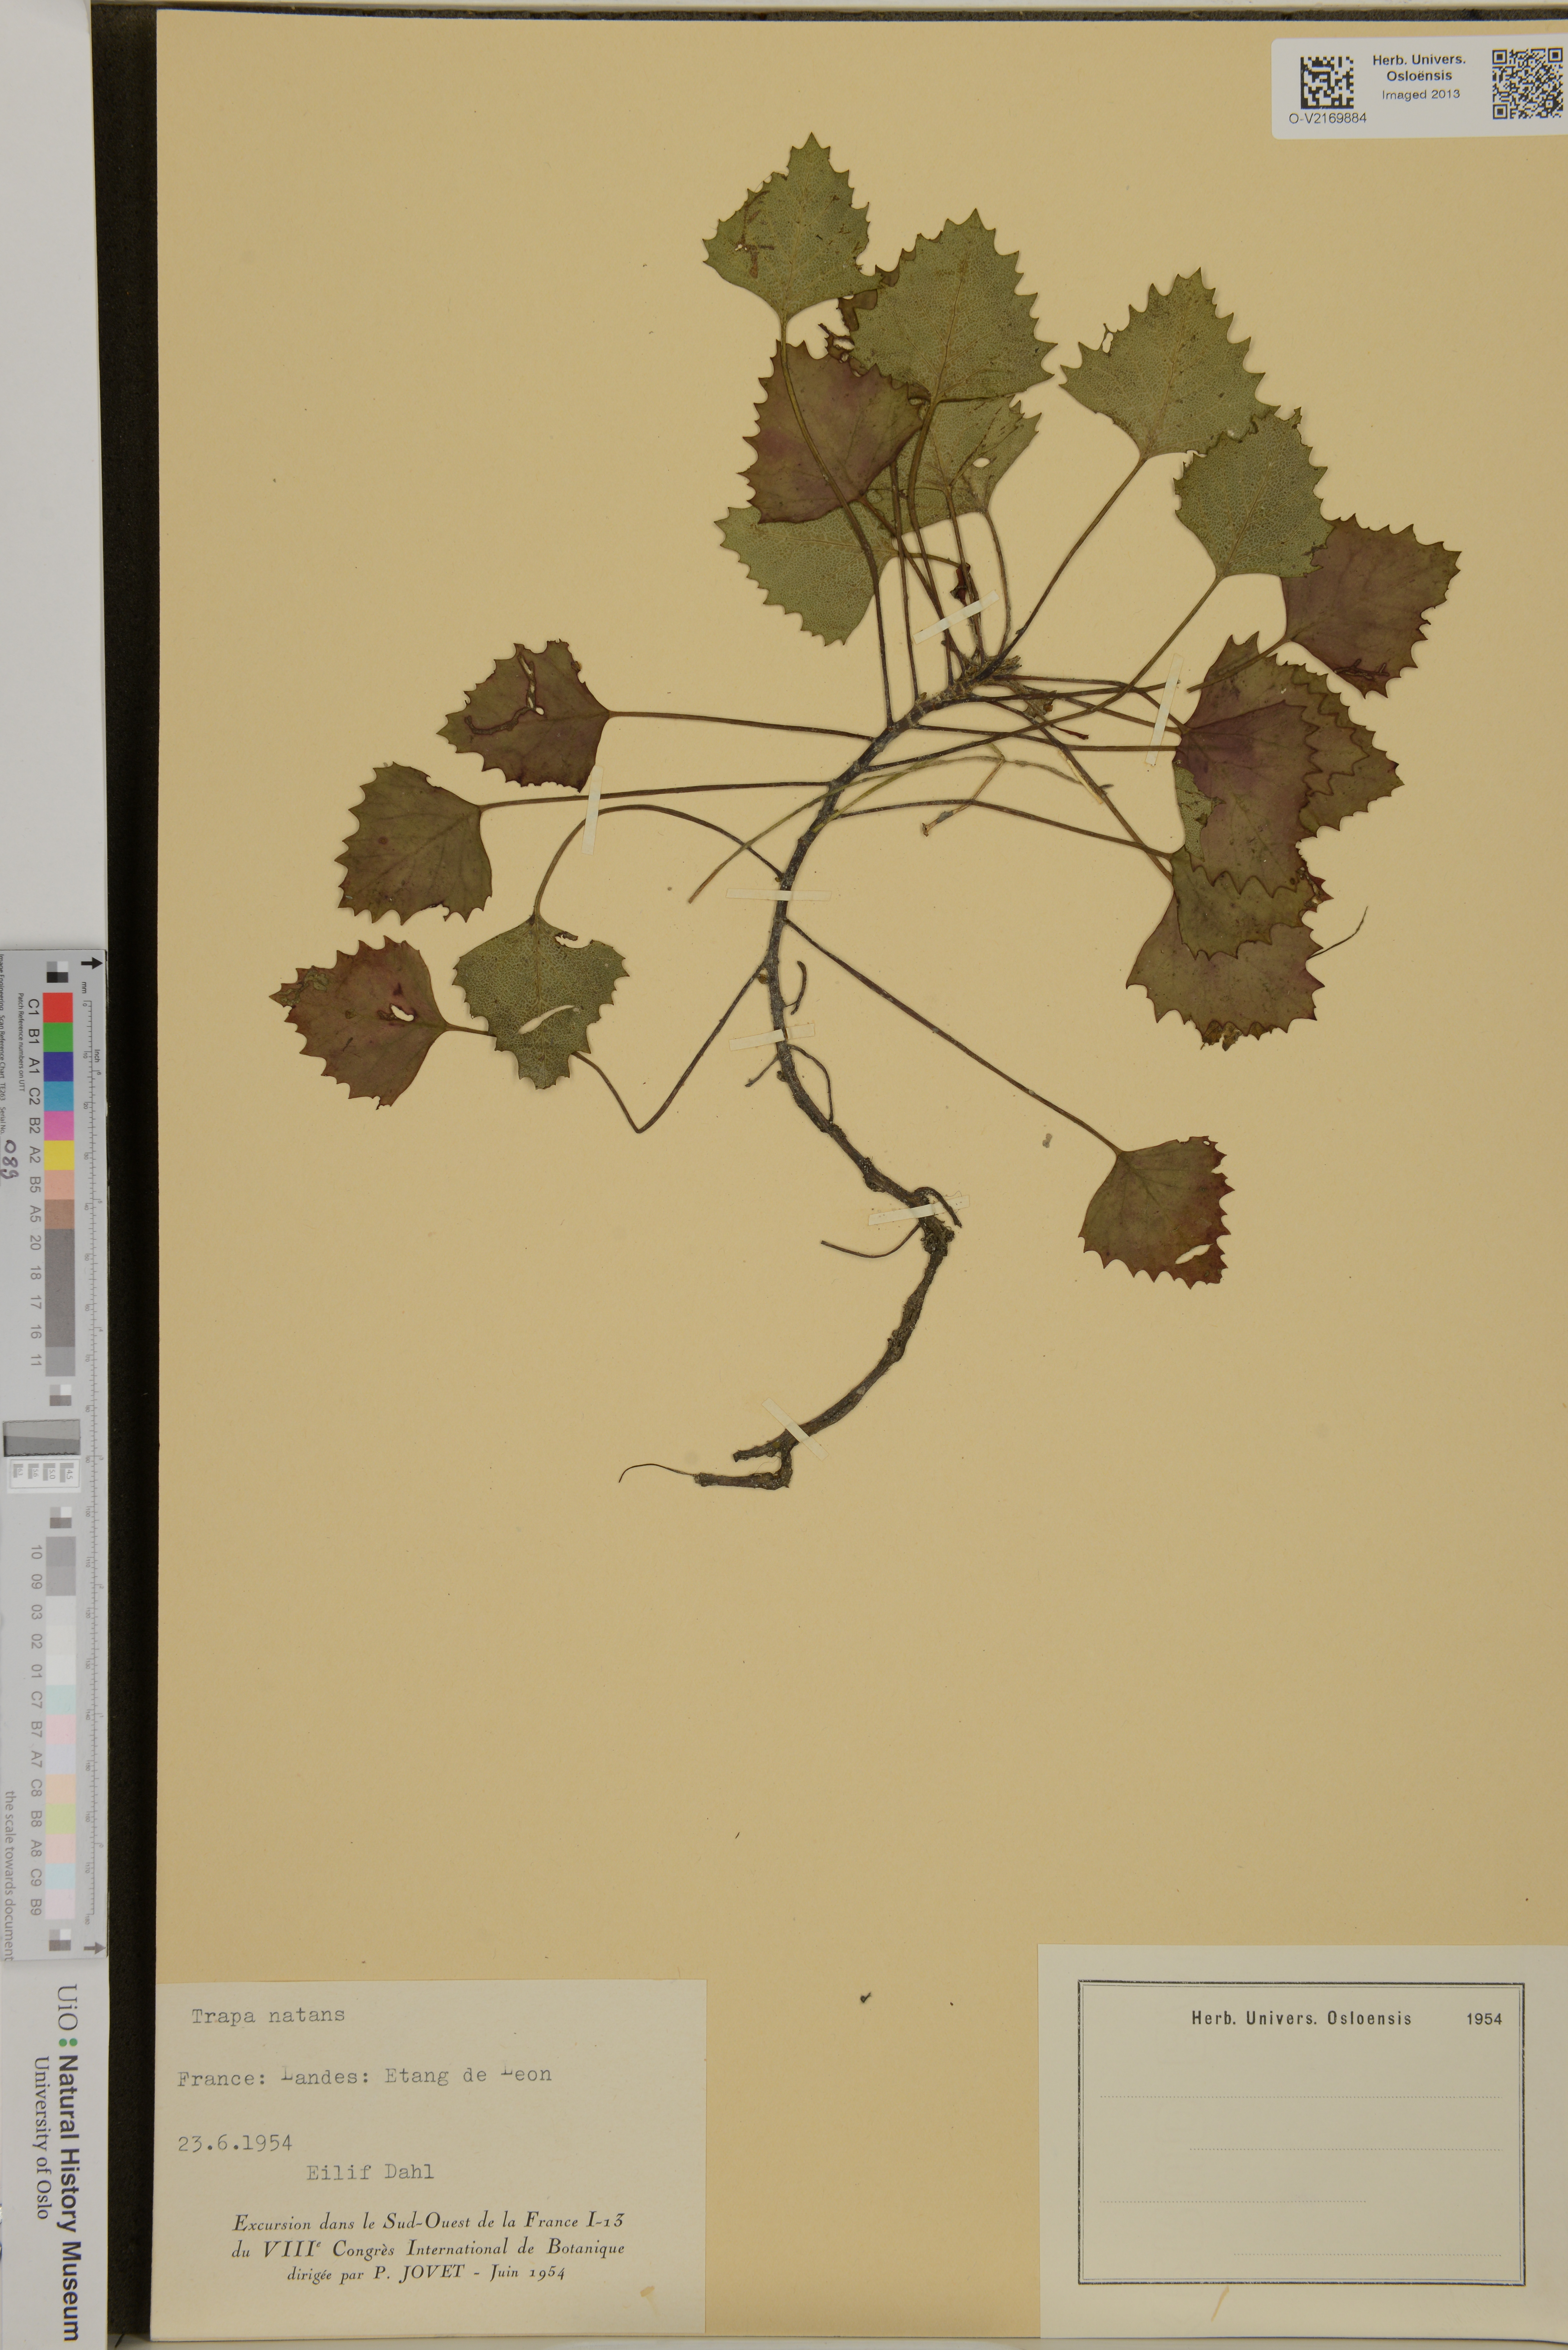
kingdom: Plantae
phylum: Tracheophyta
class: Magnoliopsida
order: Myrtales
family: Lythraceae
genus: Trapa
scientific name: Trapa natans
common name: Water chestnut
